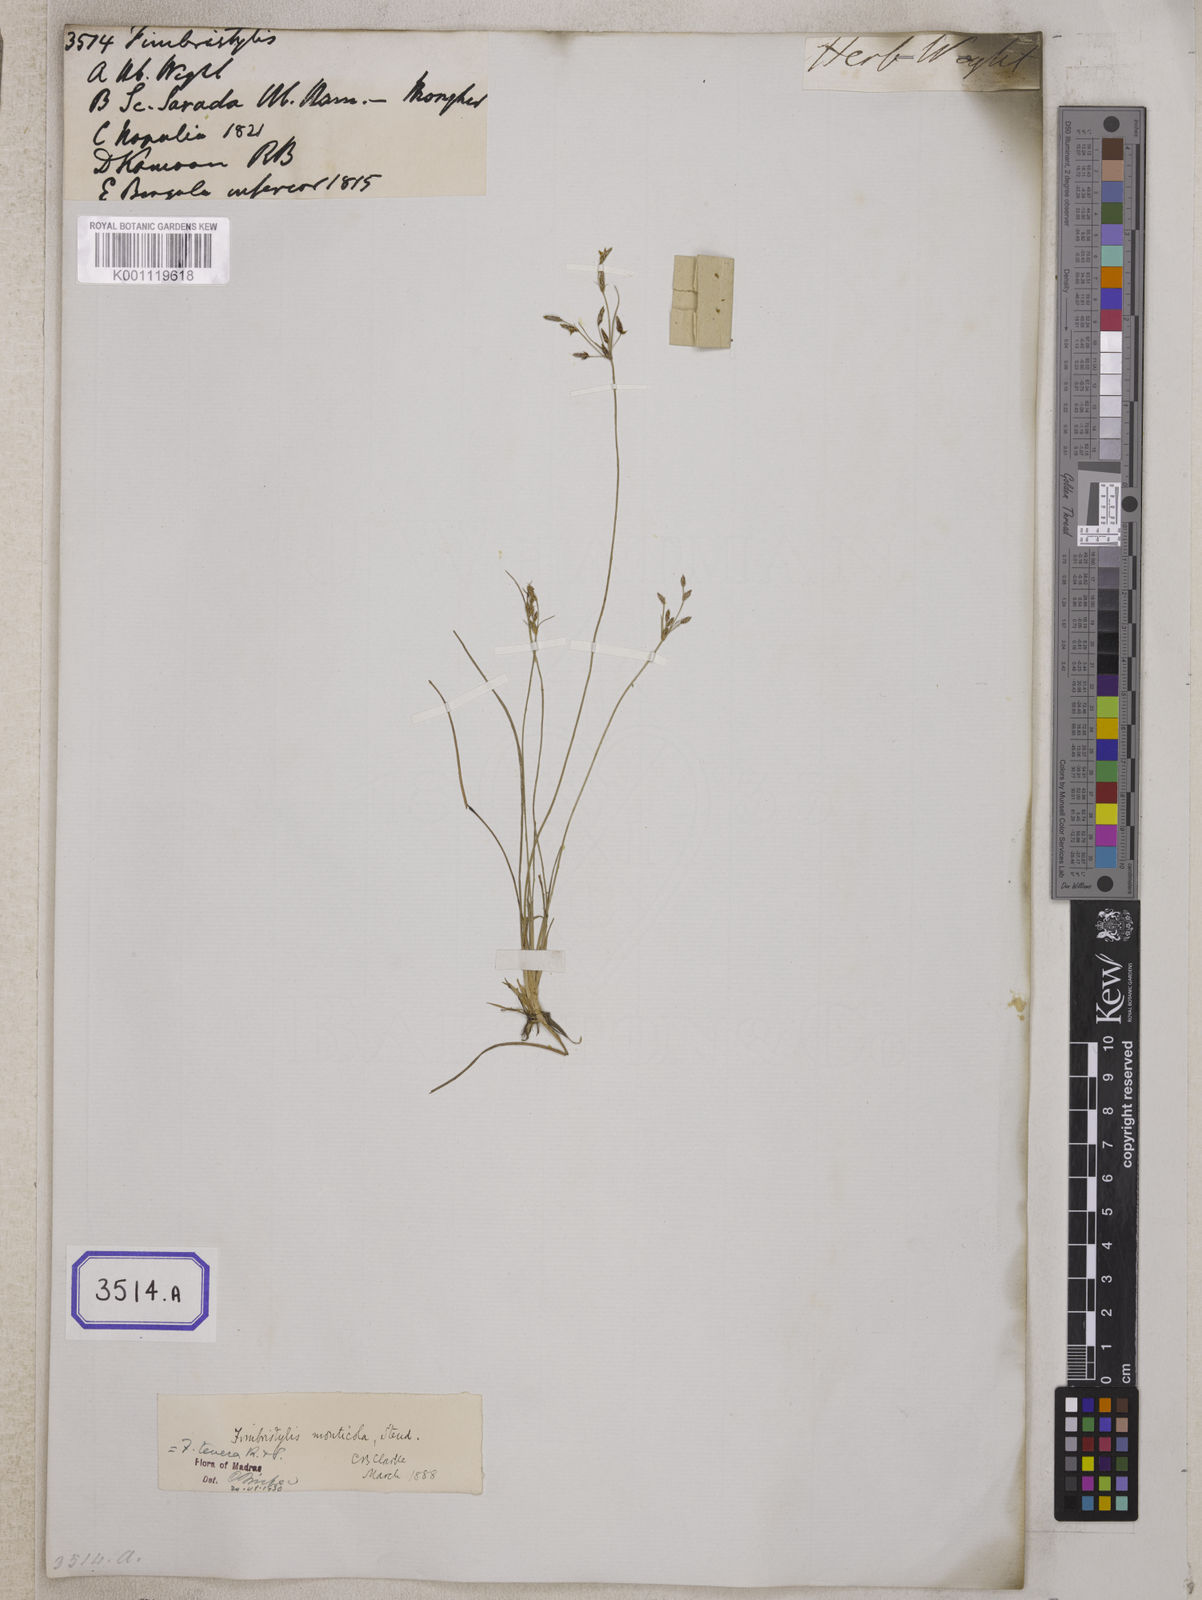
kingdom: Plantae
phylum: Tracheophyta
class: Liliopsida
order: Poales
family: Cyperaceae
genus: Fimbristylis
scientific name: Fimbristylis
